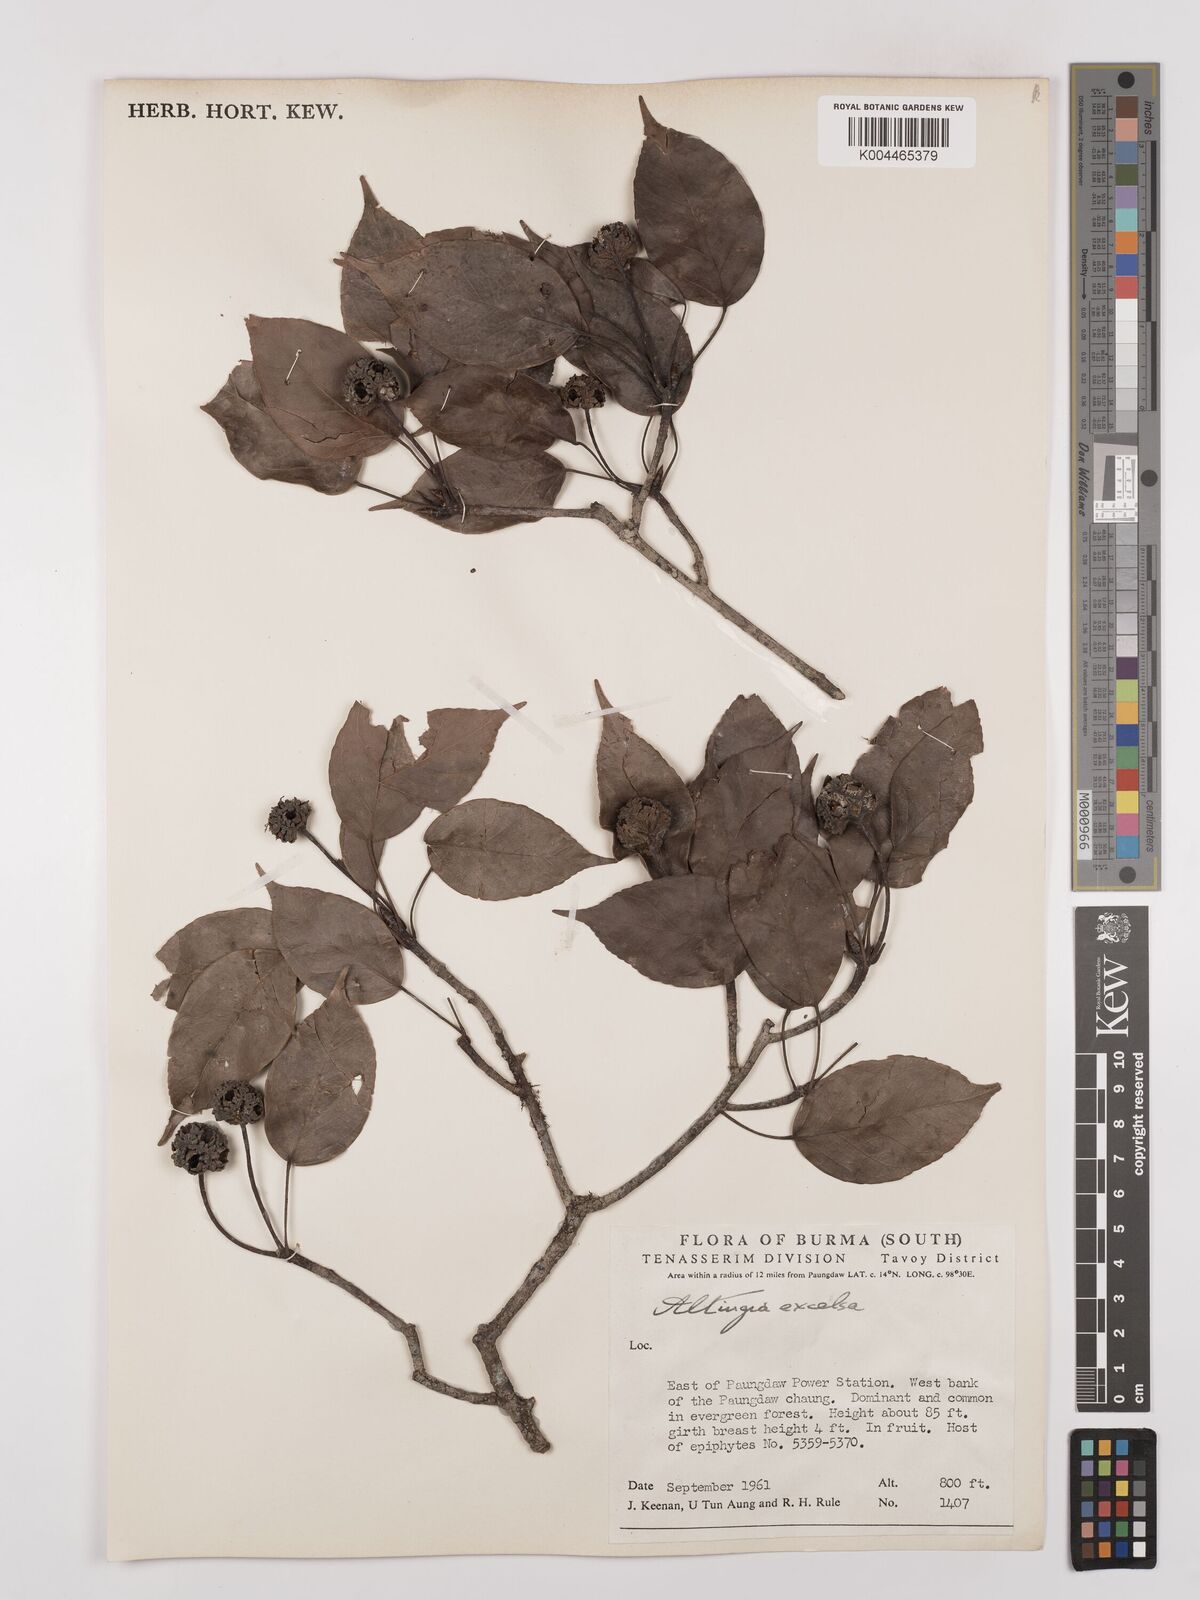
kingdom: Plantae
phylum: Tracheophyta
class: Magnoliopsida
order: Saxifragales
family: Altingiaceae
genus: Liquidambar
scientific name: Liquidambar excelsa
